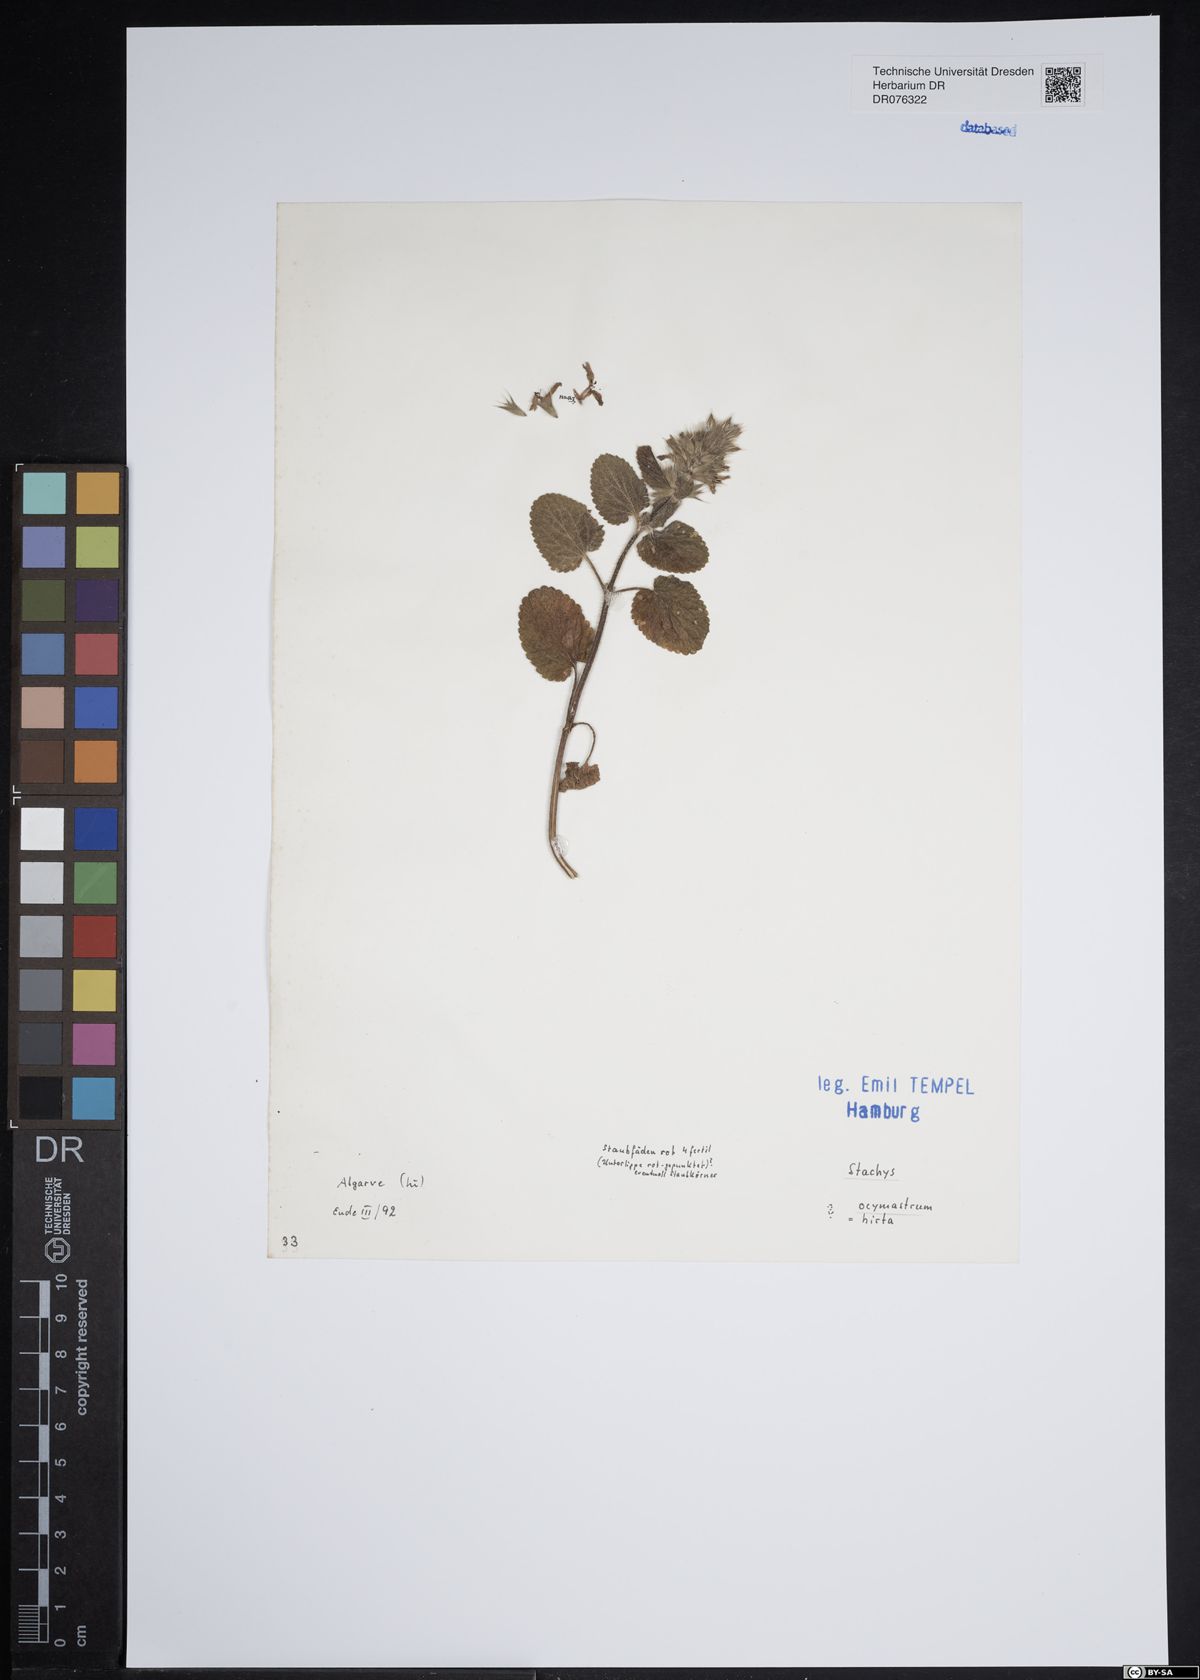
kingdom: Plantae
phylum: Tracheophyta
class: Magnoliopsida
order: Lamiales
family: Lamiaceae
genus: Stachys
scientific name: Stachys ocymastrum
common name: Italian hedgenettle
